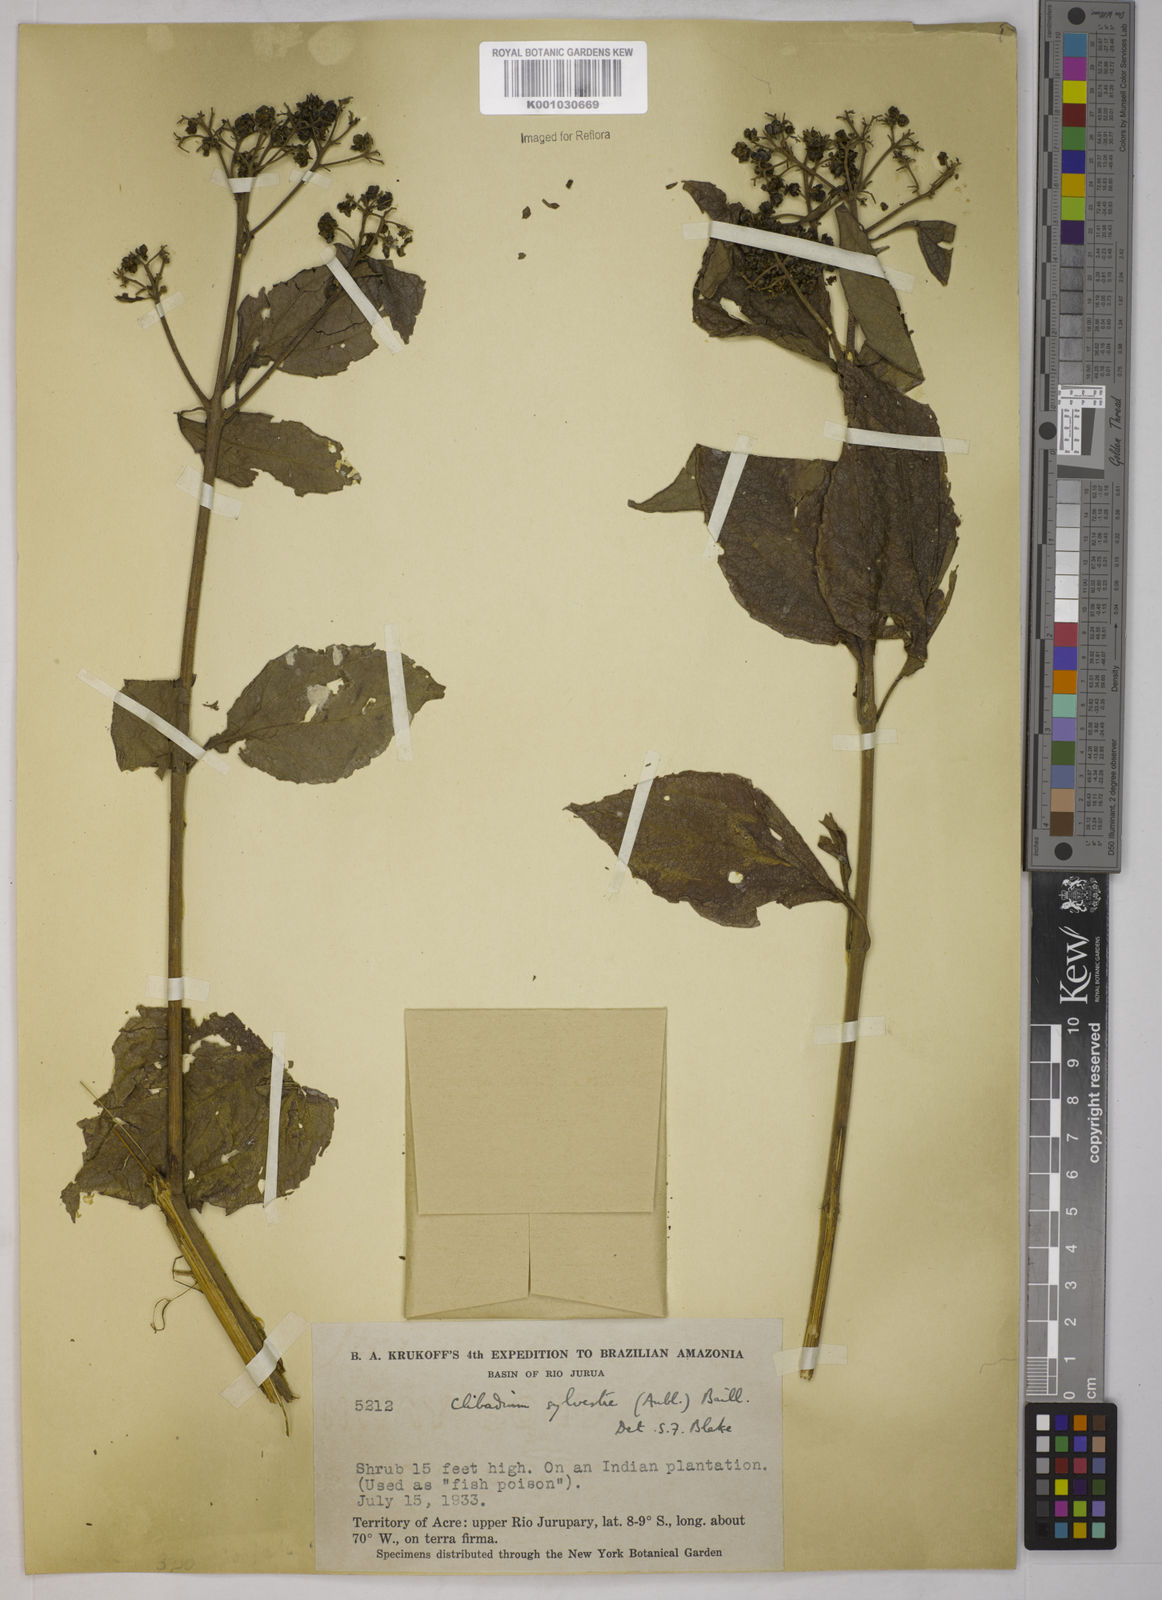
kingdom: Plantae
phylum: Tracheophyta
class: Magnoliopsida
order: Asterales
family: Asteraceae
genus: Clibadium
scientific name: Clibadium sylvestre
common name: Barbasco
